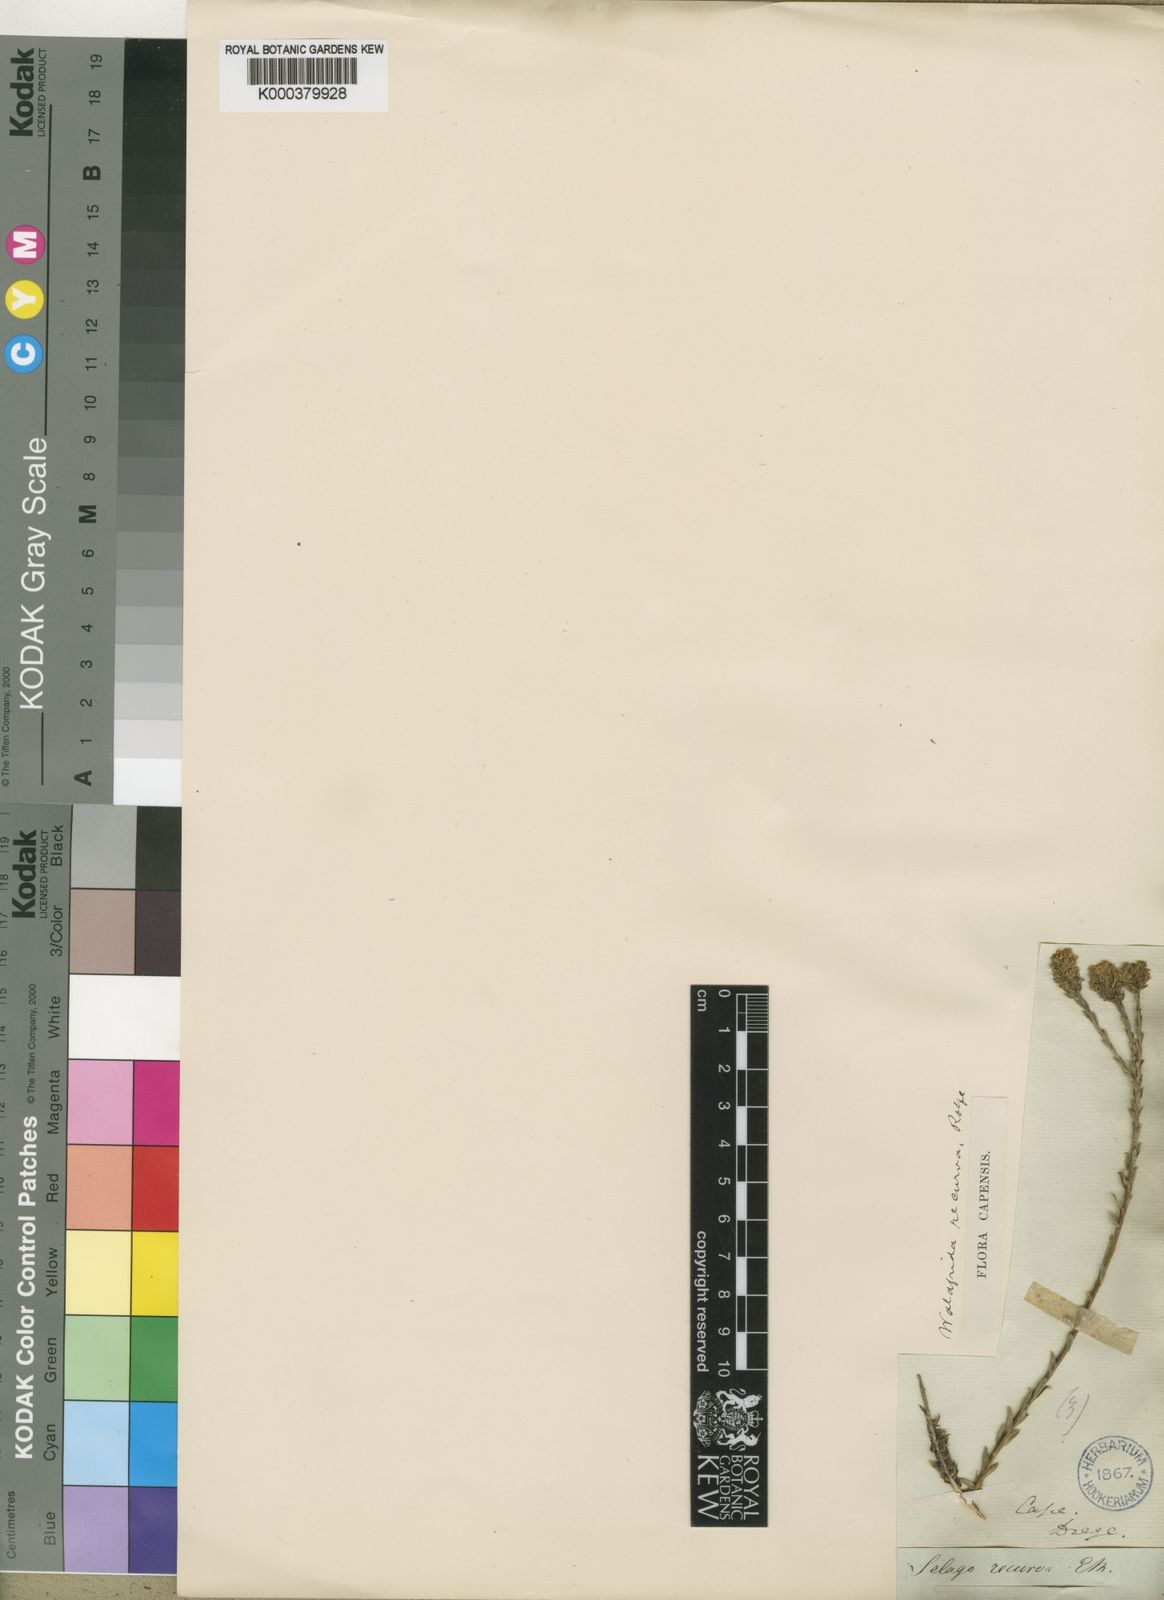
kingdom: Plantae
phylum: Tracheophyta
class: Magnoliopsida
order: Lamiales
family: Scrophulariaceae
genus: Selago
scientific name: Selago recurva
